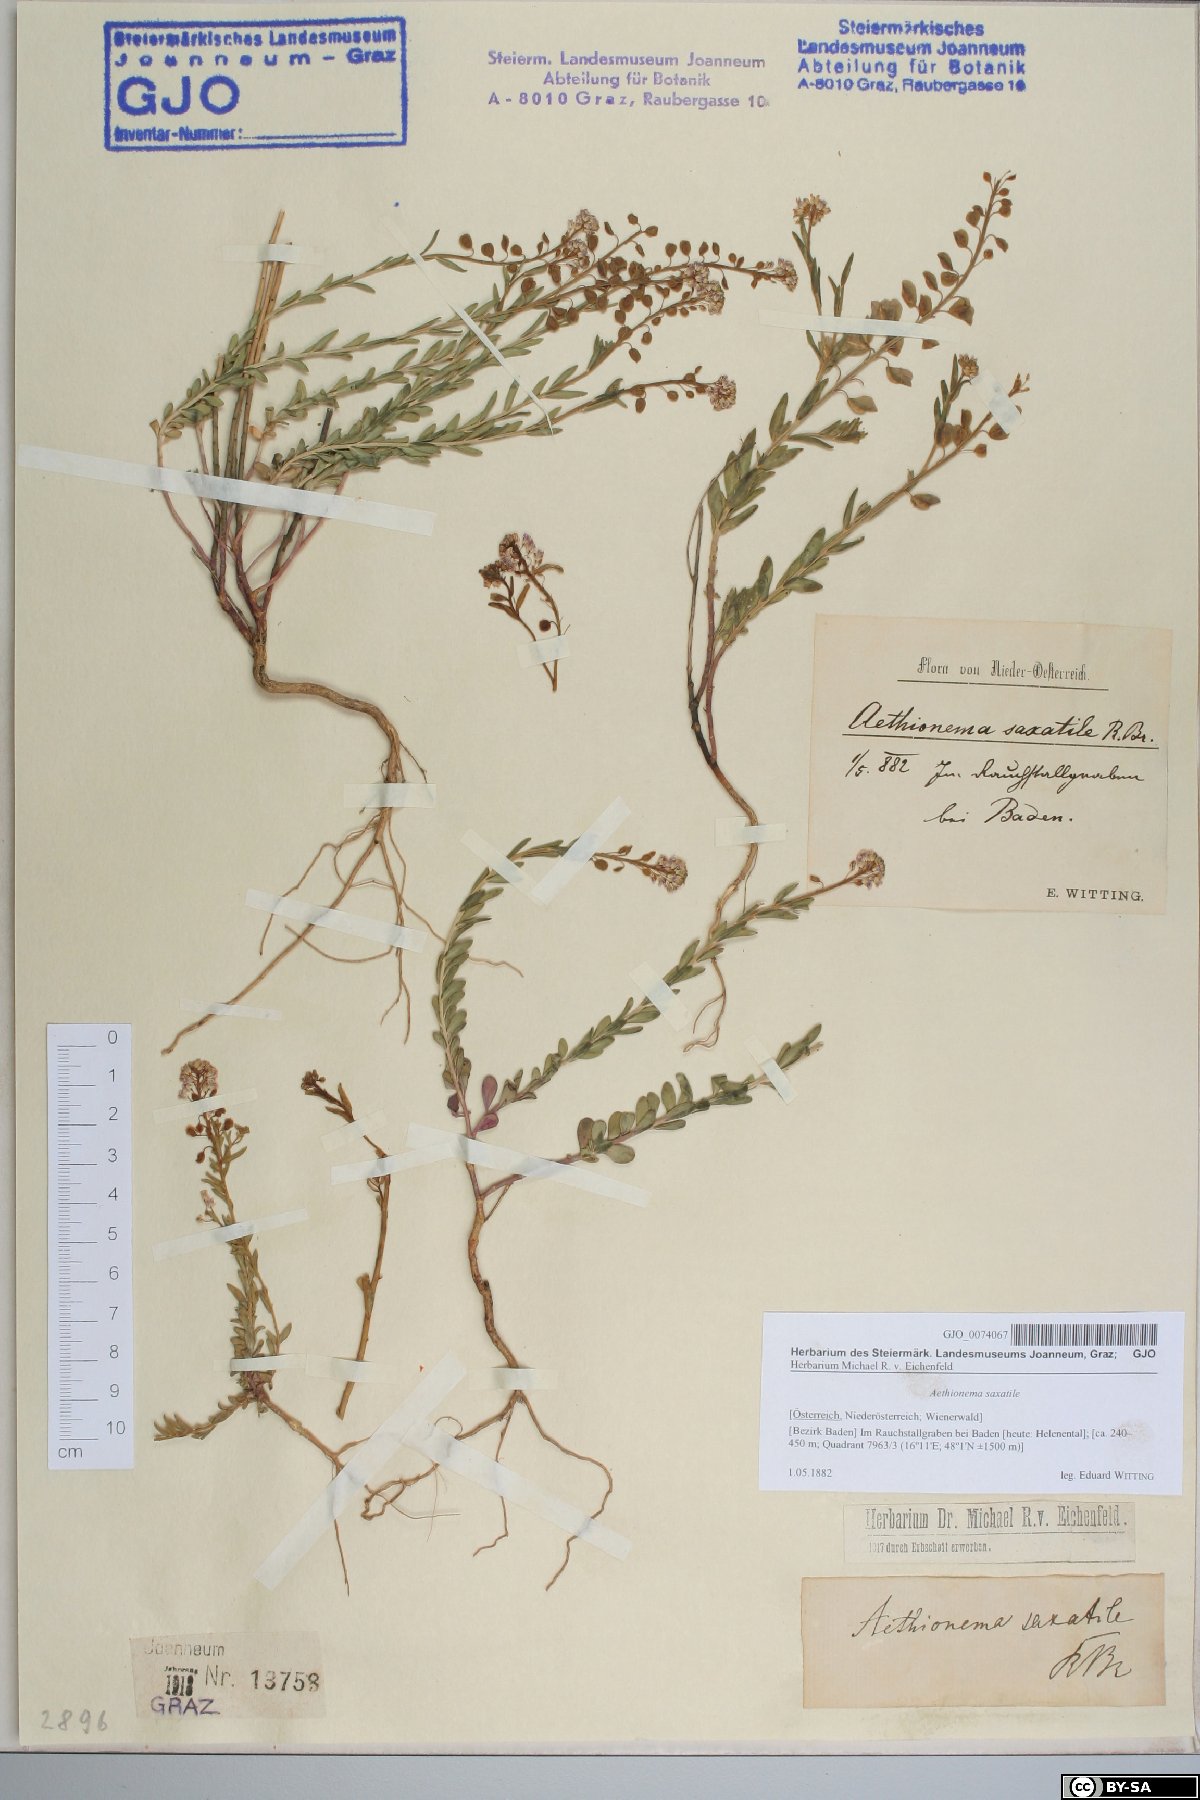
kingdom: Plantae
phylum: Tracheophyta
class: Magnoliopsida
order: Brassicales
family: Brassicaceae
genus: Aethionema
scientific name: Aethionema saxatile
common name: Burnt candytuft
